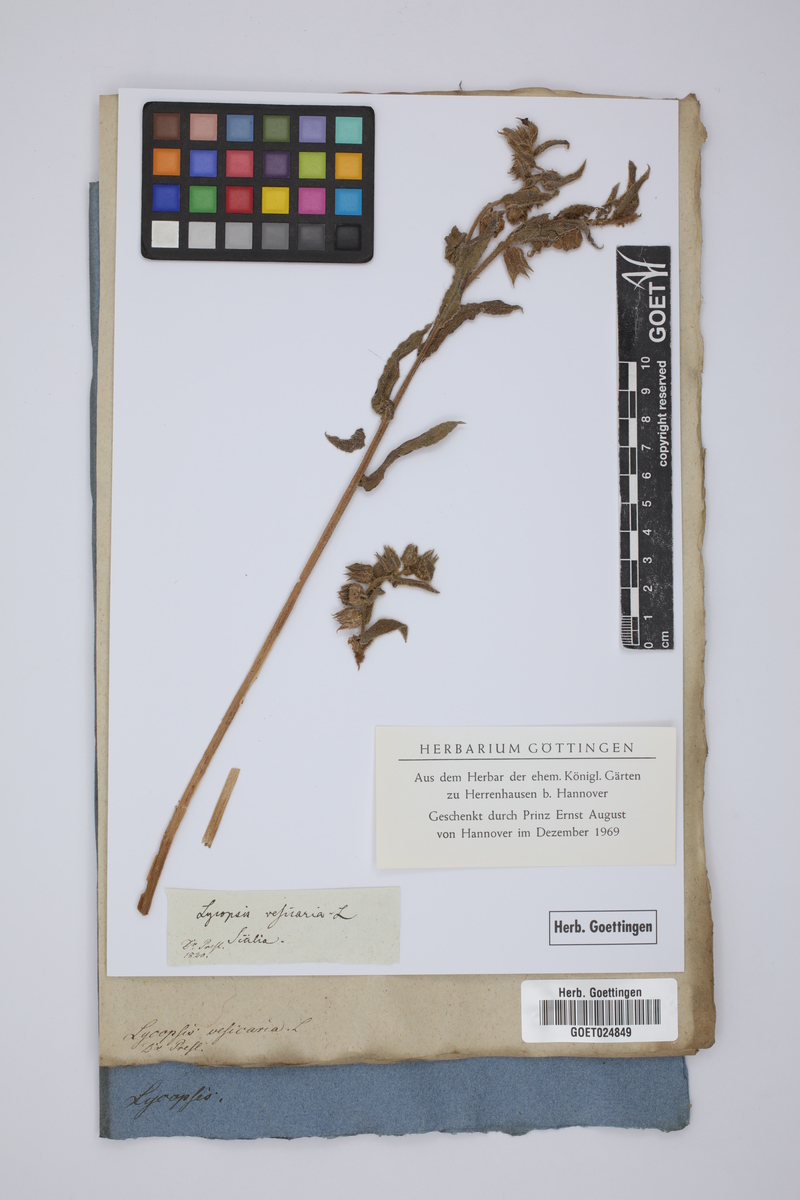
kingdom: Plantae
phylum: Tracheophyta
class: Magnoliopsida
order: Boraginales
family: Boraginaceae
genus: Nonea
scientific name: Nonea vesicaria
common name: Red monkswort
